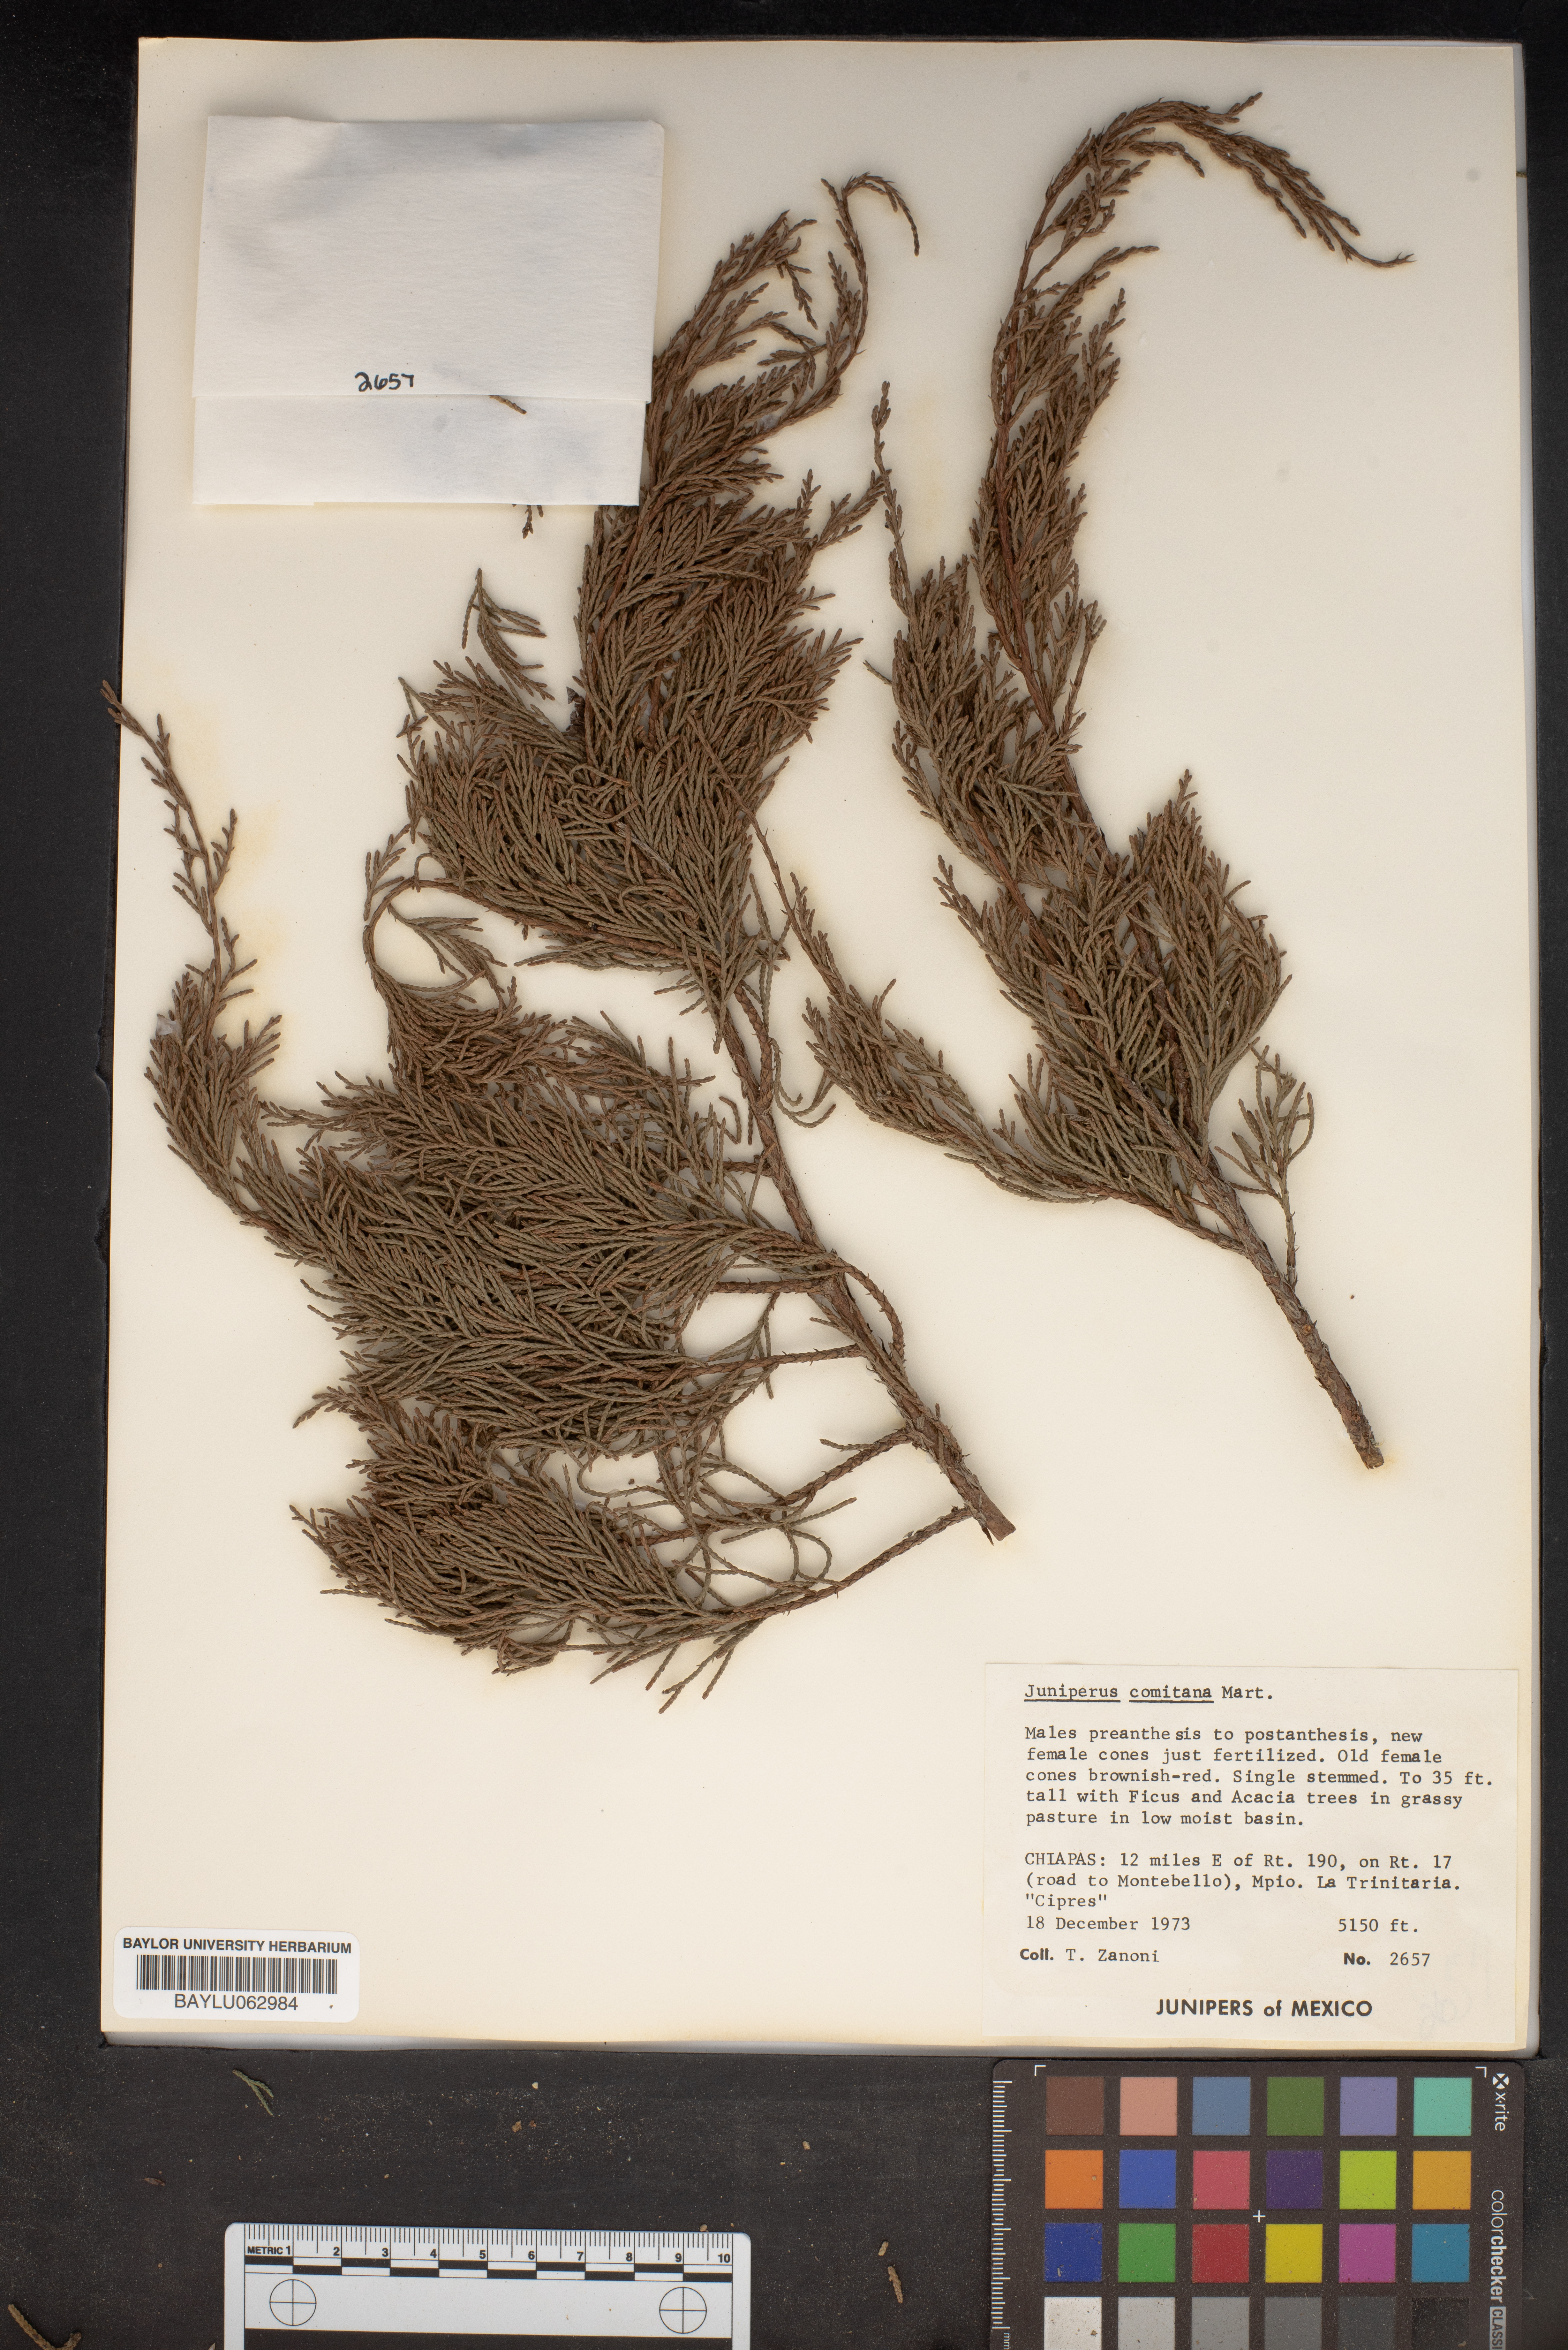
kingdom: Plantae
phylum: Tracheophyta
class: Pinopsida
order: Pinales
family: Cupressaceae
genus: Juniperus
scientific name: Juniperus comitana
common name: Comitan juniper
